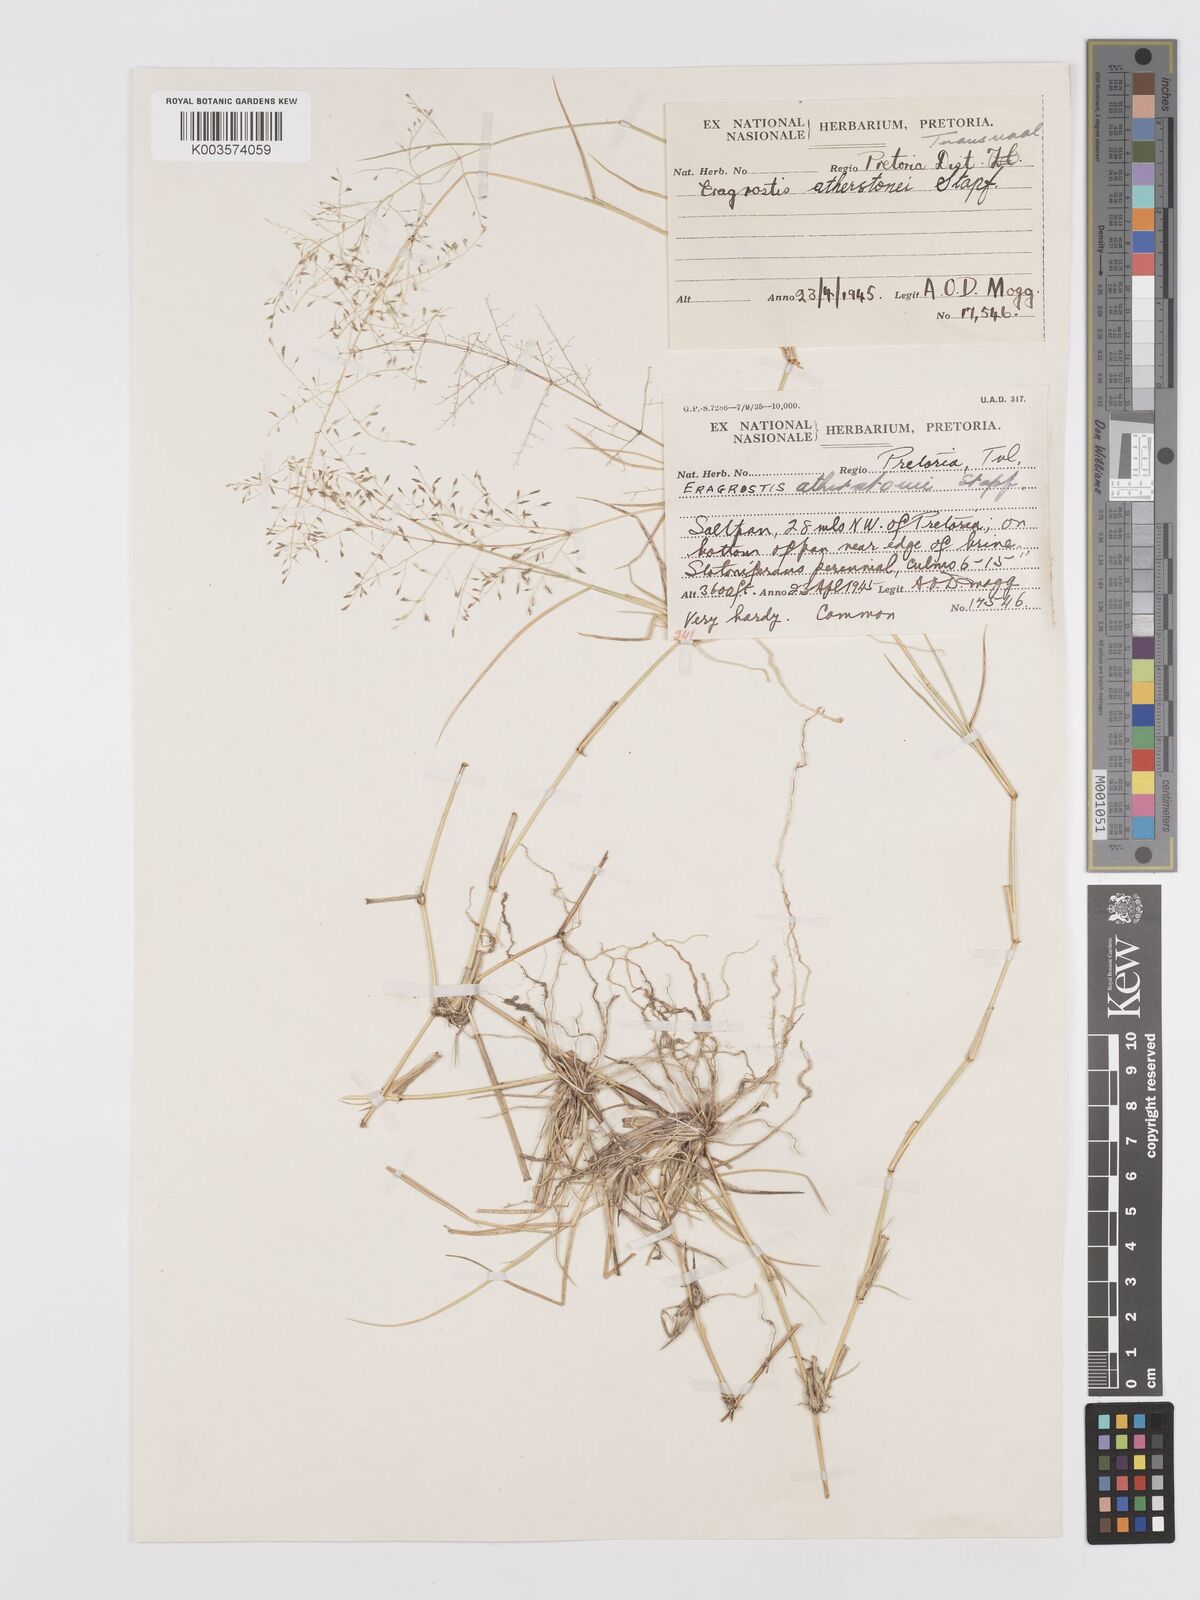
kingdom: Plantae
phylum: Tracheophyta
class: Liliopsida
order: Poales
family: Poaceae
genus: Eragrostis
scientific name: Eragrostis cylindriflora
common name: Cylinderflower lovegrass
